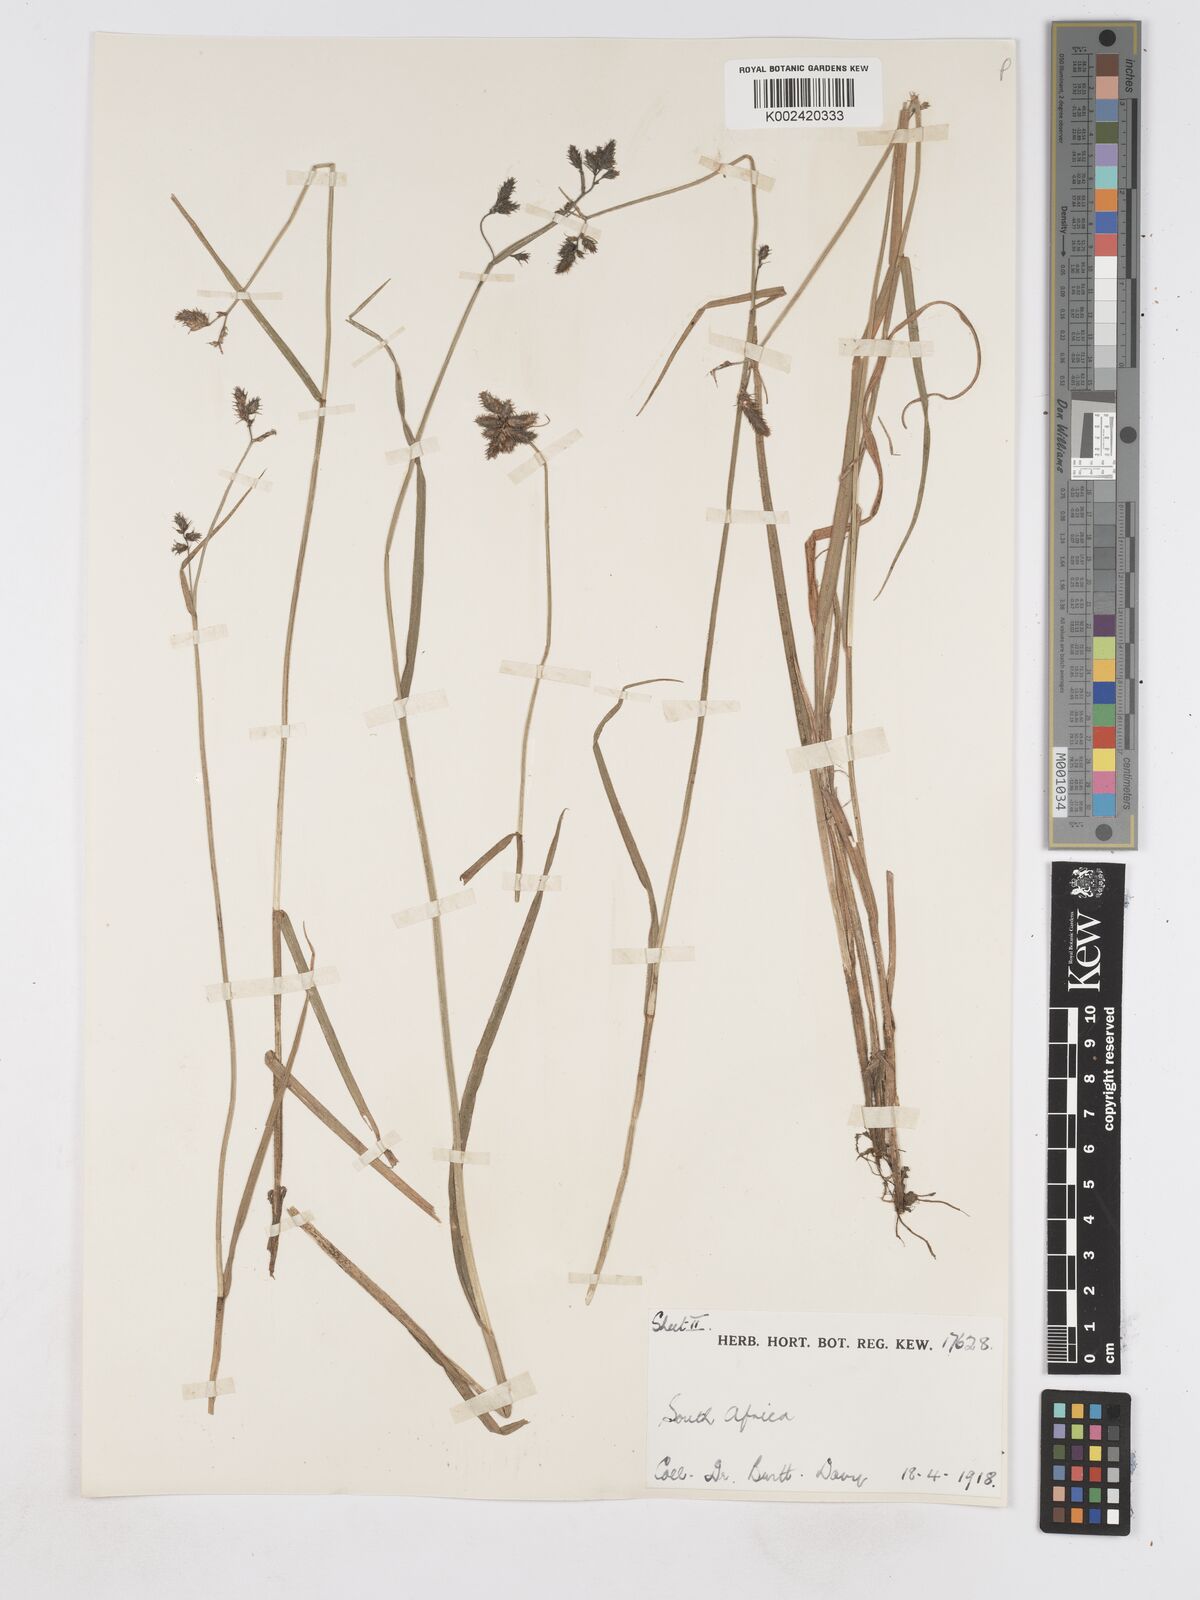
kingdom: Plantae
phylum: Tracheophyta
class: Liliopsida
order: Poales
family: Cyperaceae
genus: Fuirena
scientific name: Fuirena
